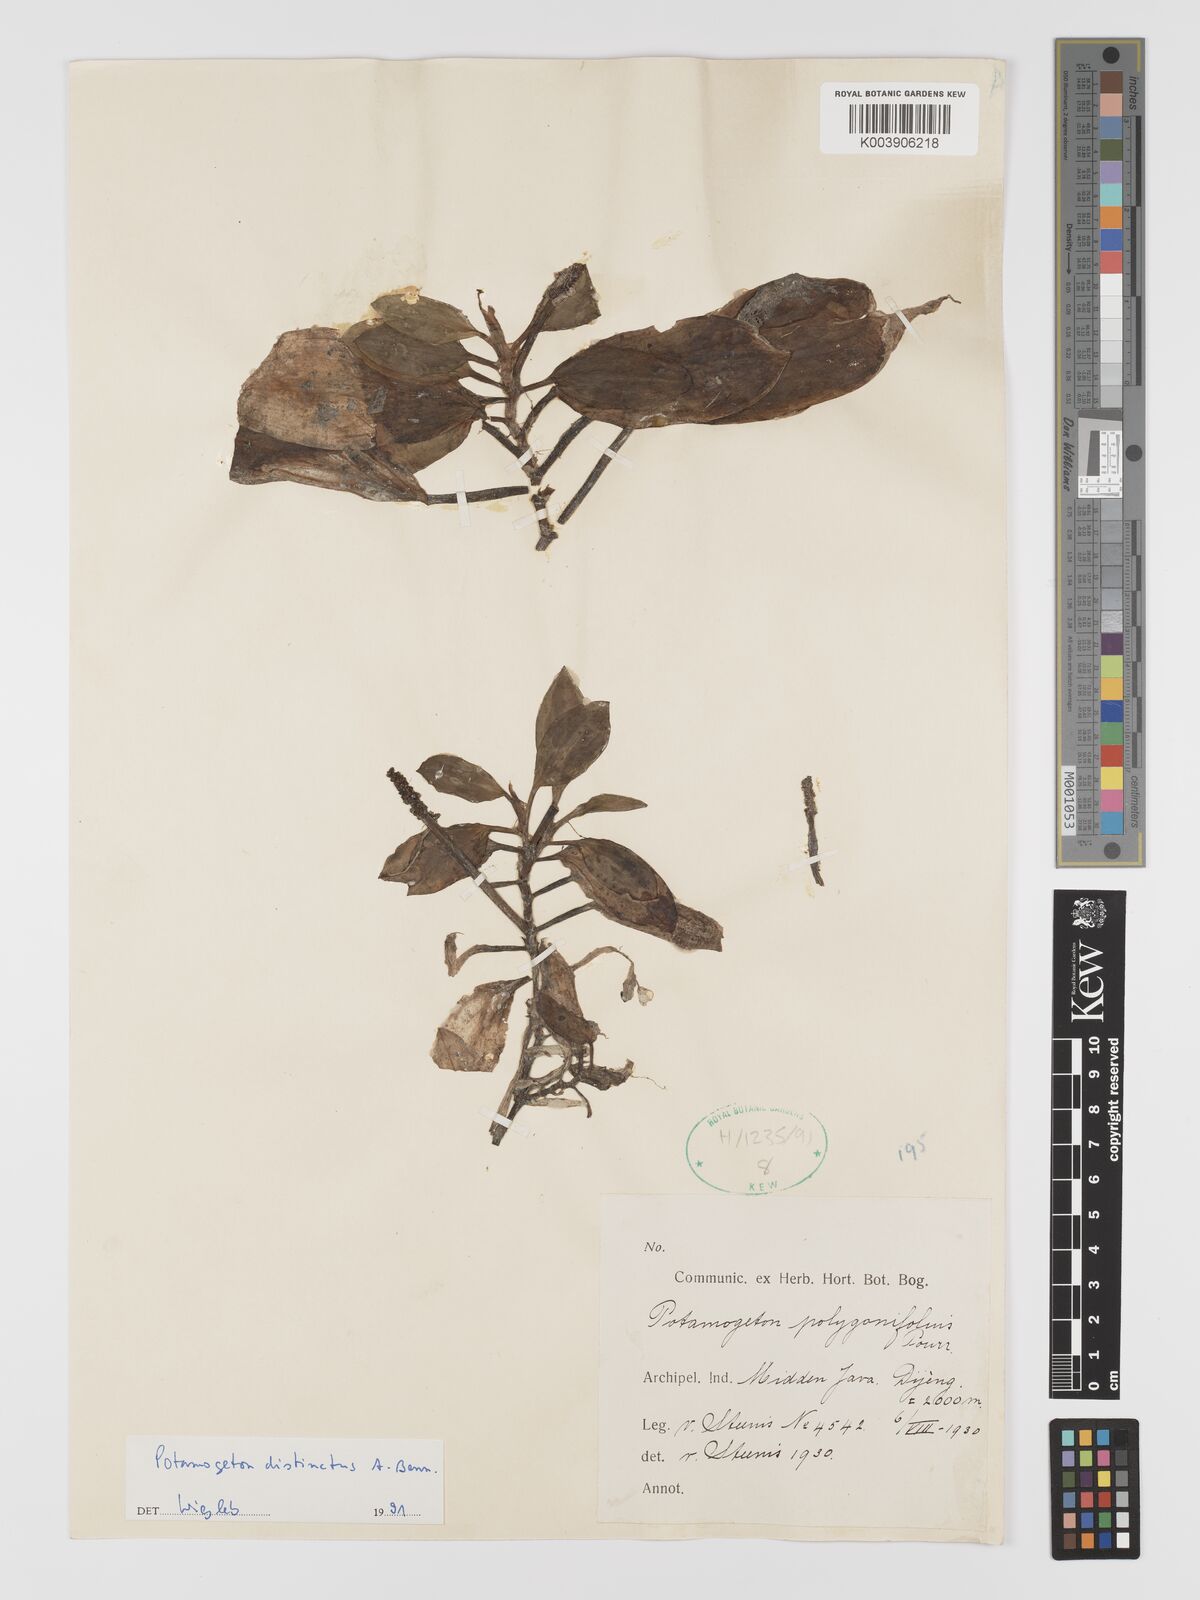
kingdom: Plantae
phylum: Tracheophyta
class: Liliopsida
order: Alismatales
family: Potamogetonaceae
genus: Potamogeton
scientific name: Potamogeton distinctus
